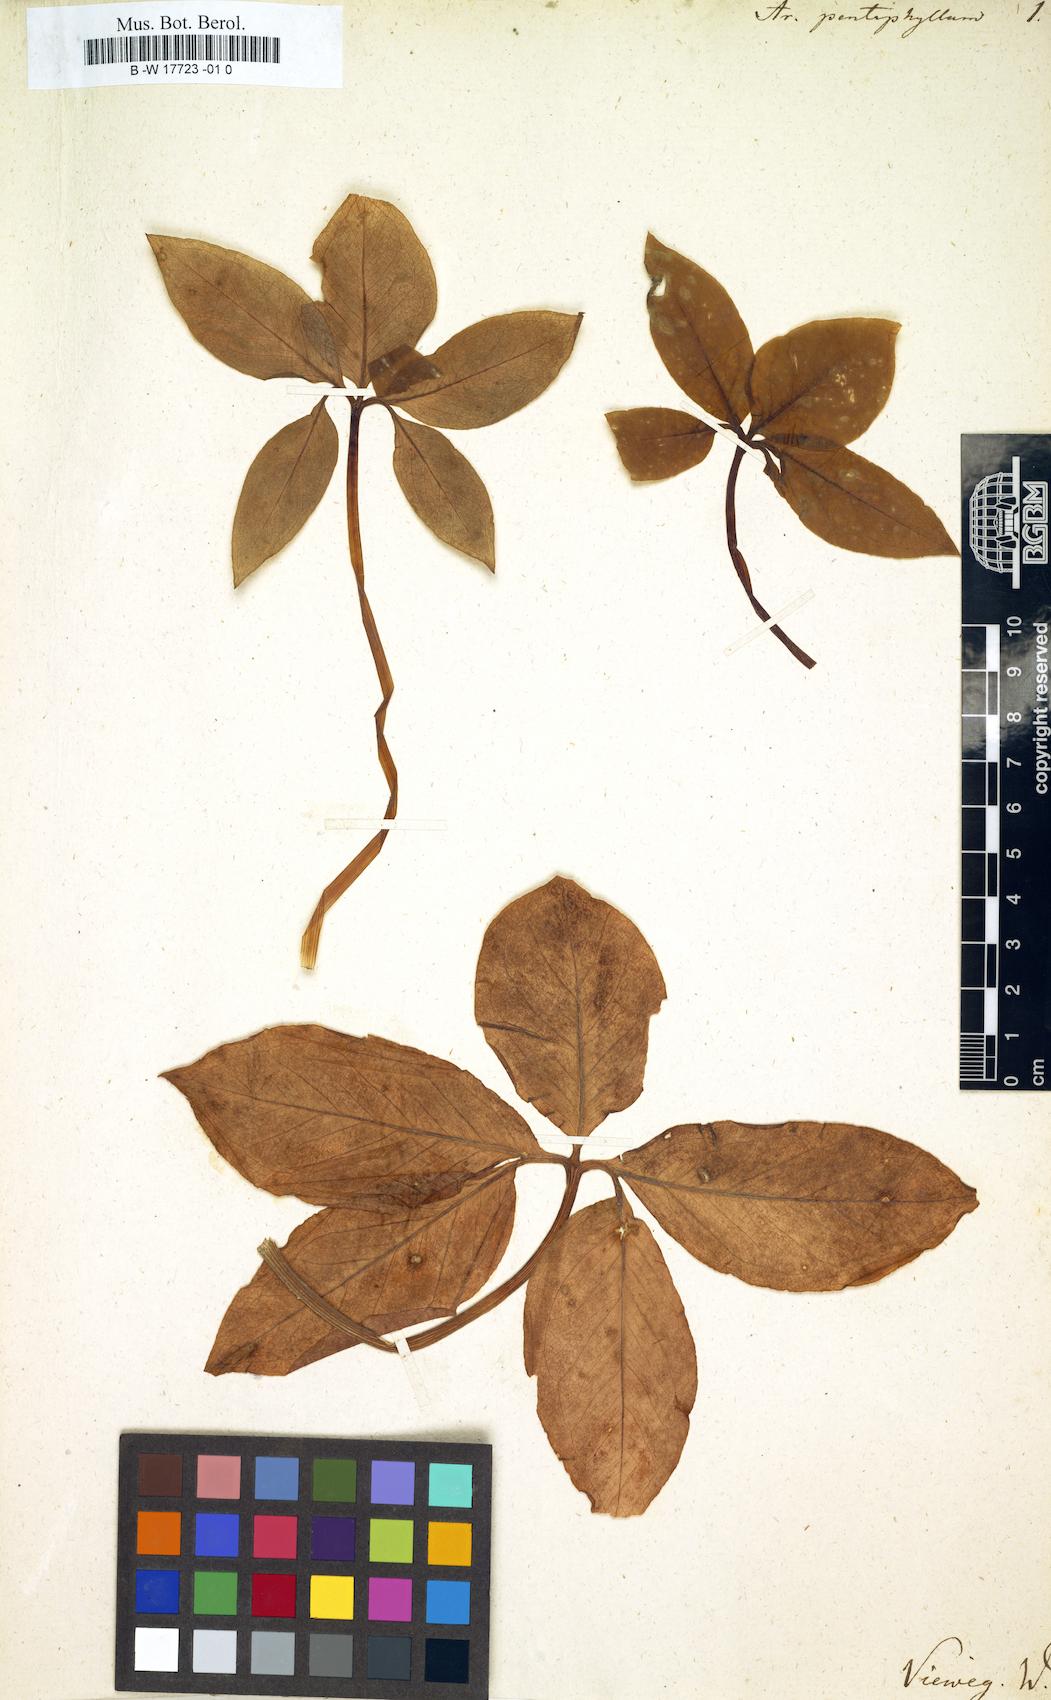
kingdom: Plantae
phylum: Tracheophyta
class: Liliopsida
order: Alismatales
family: Araceae
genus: Arum
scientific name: Arum pentaphyllum
